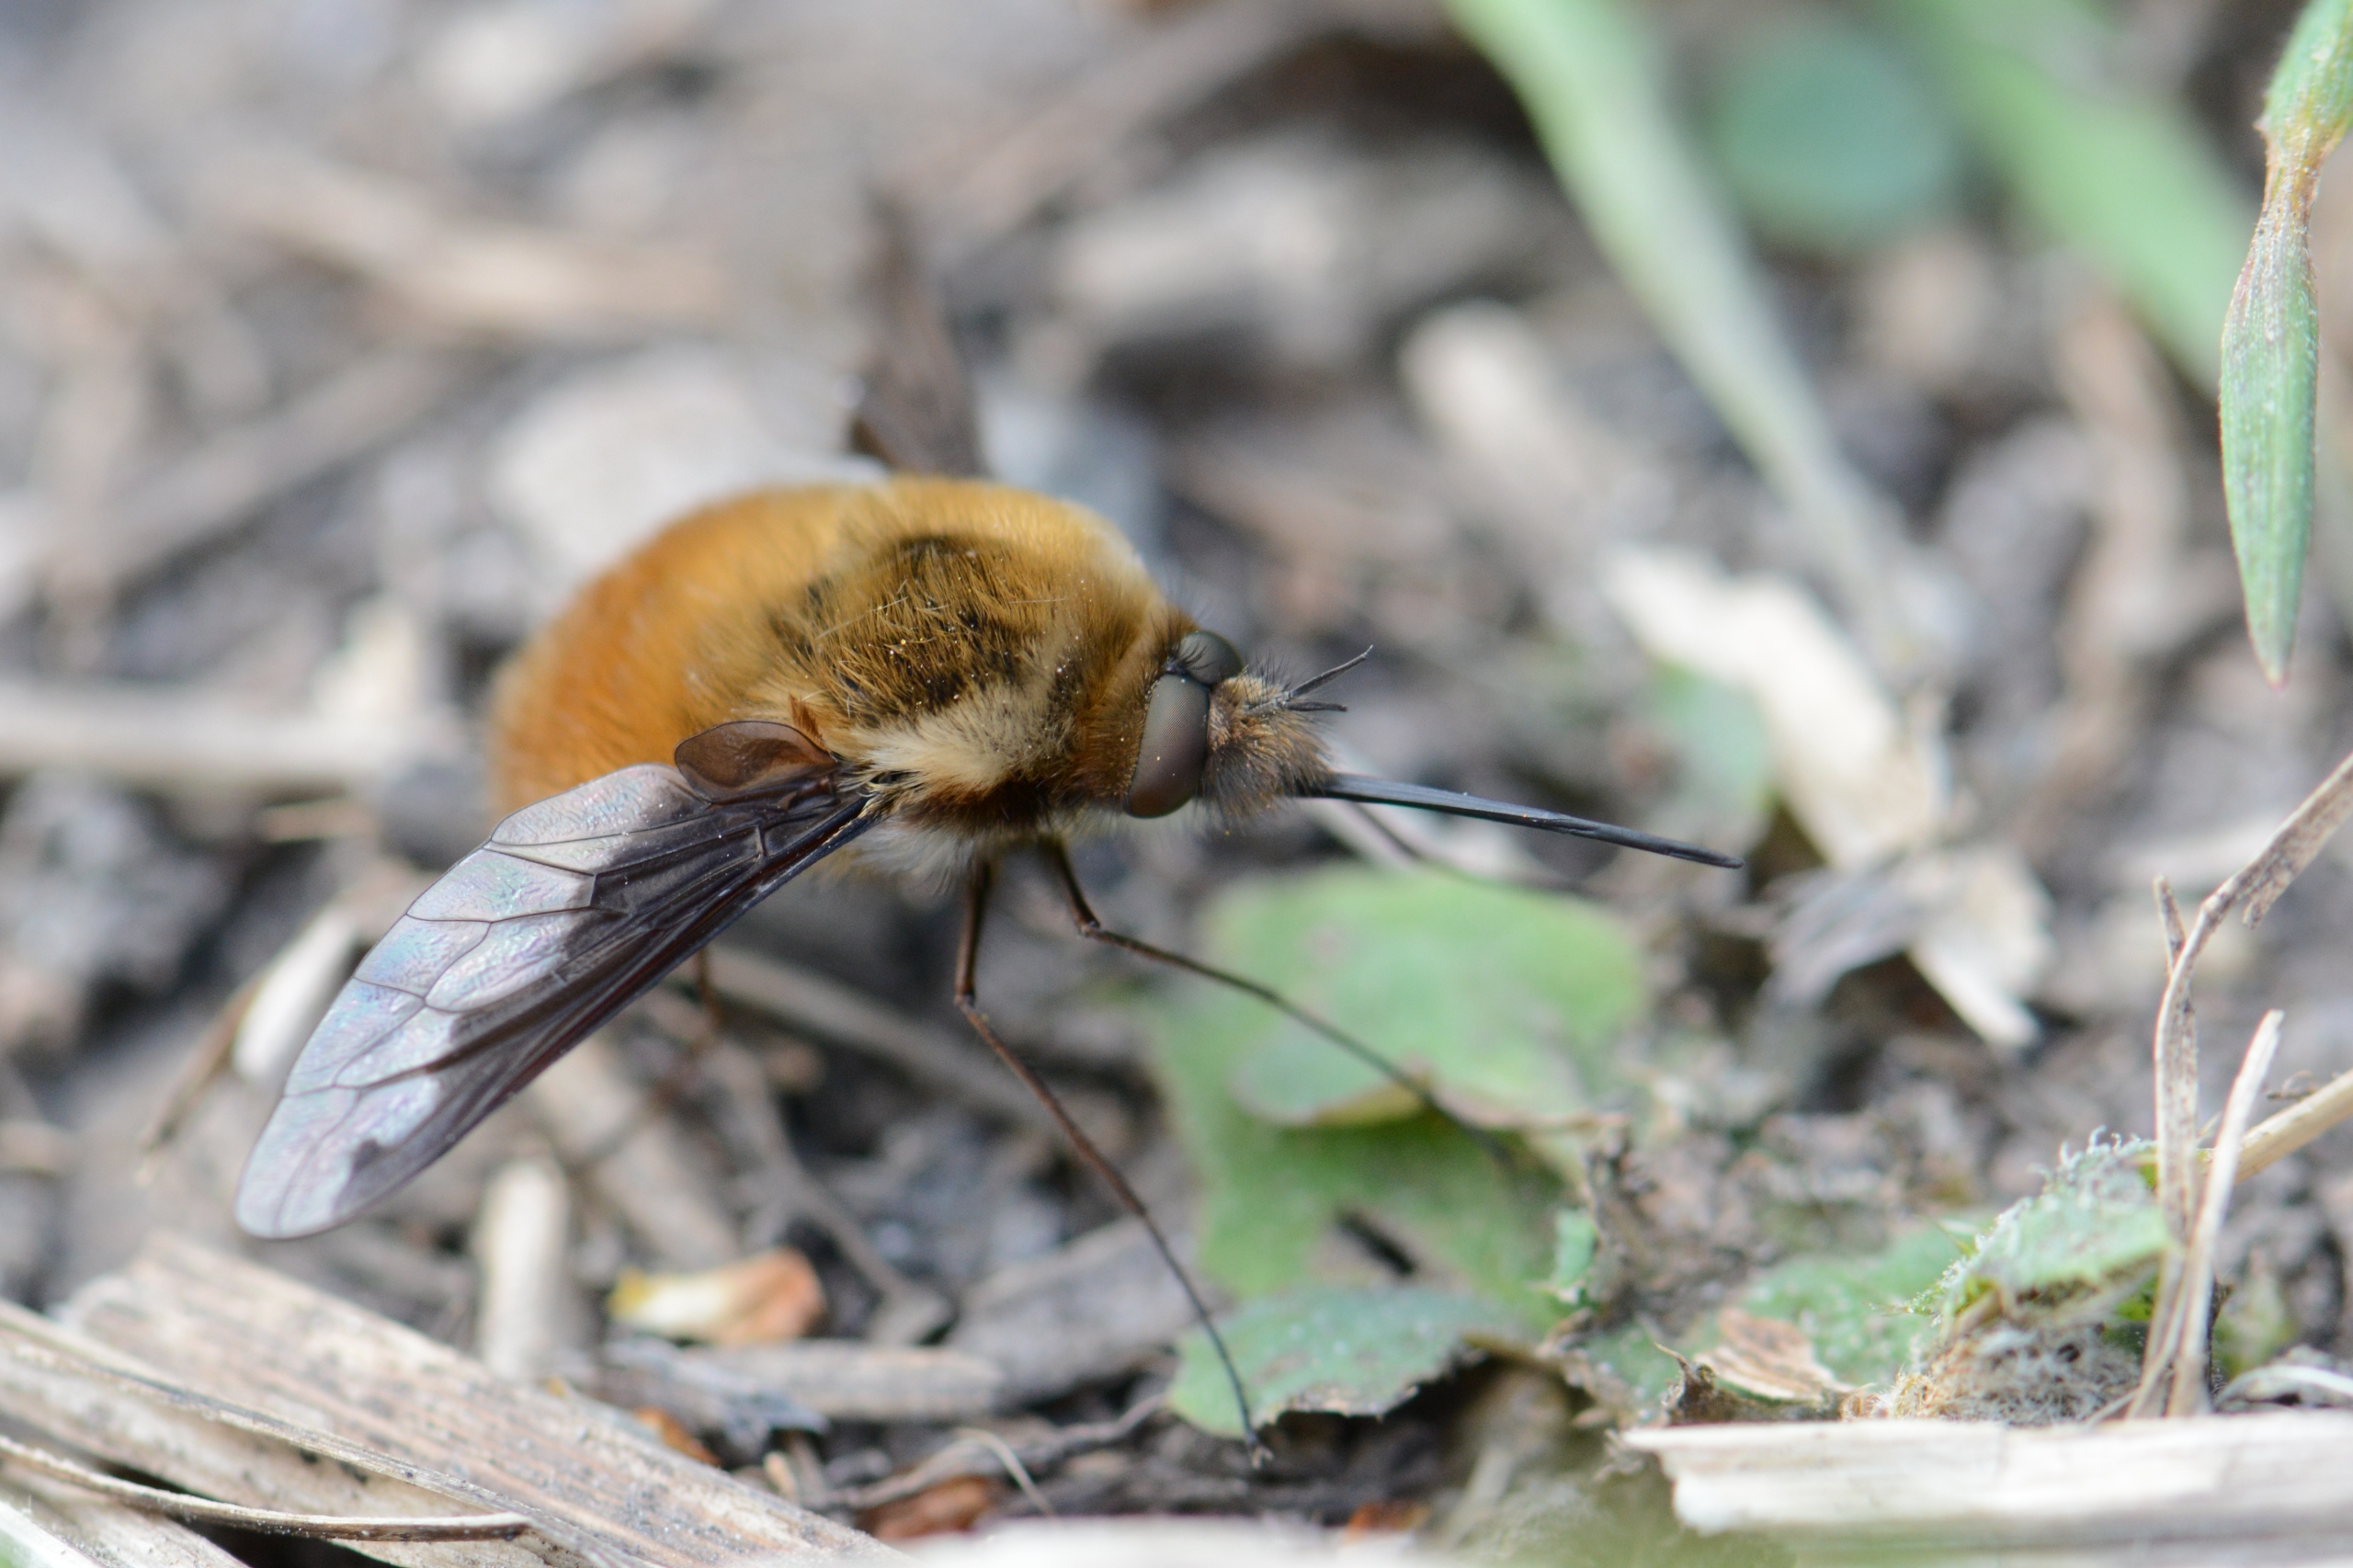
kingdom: Animalia
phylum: Arthropoda
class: Insecta
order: Diptera
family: Bombyliidae
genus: Bombylius
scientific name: Bombylius major
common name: Stor humleflue
